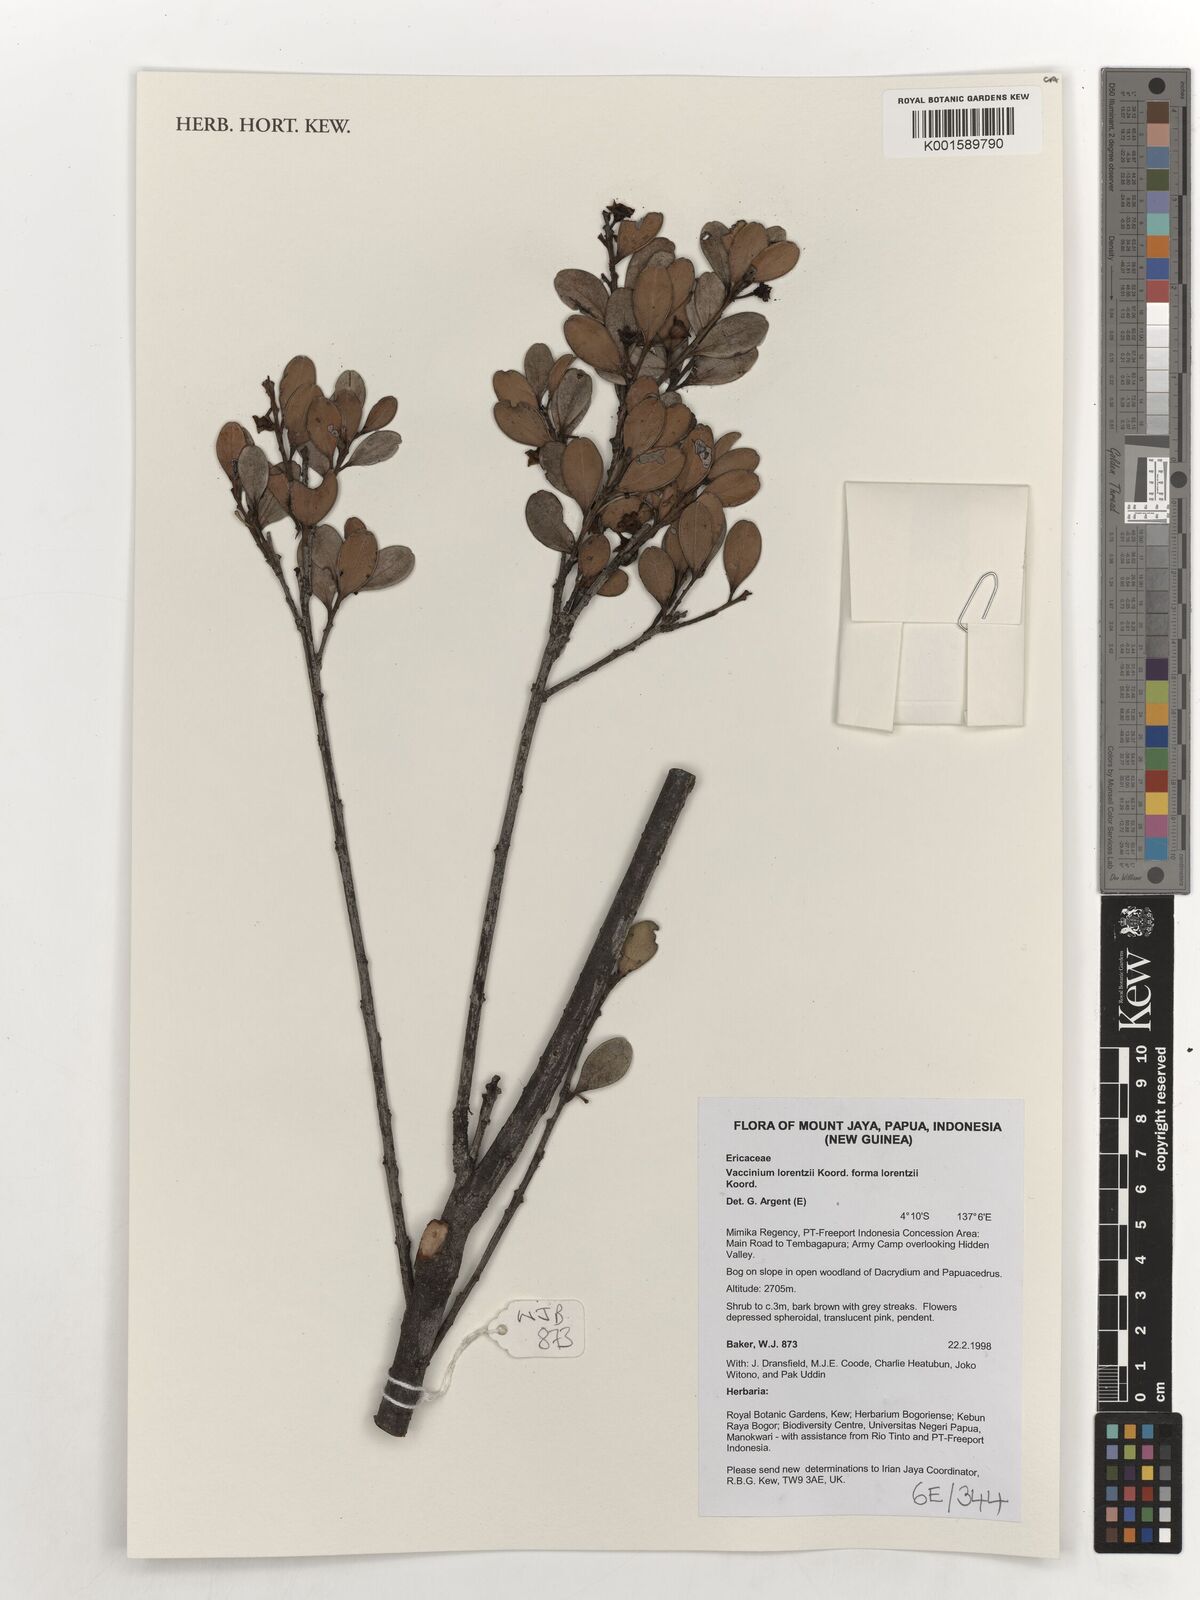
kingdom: Plantae
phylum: Tracheophyta
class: Magnoliopsida
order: Ericales
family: Ericaceae
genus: Vaccinium
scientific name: Vaccinium lorentzii
